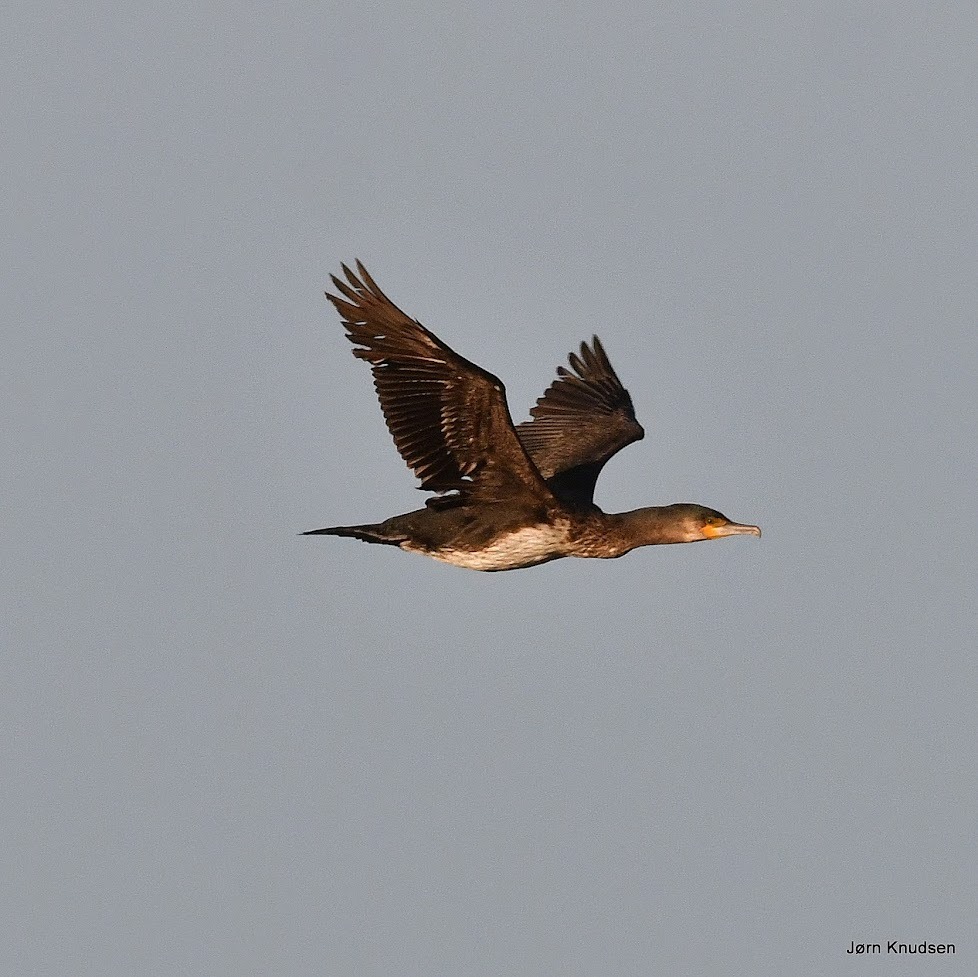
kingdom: Animalia
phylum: Chordata
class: Aves
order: Suliformes
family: Phalacrocoracidae
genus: Phalacrocorax
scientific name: Phalacrocorax carbo
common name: Skarv
